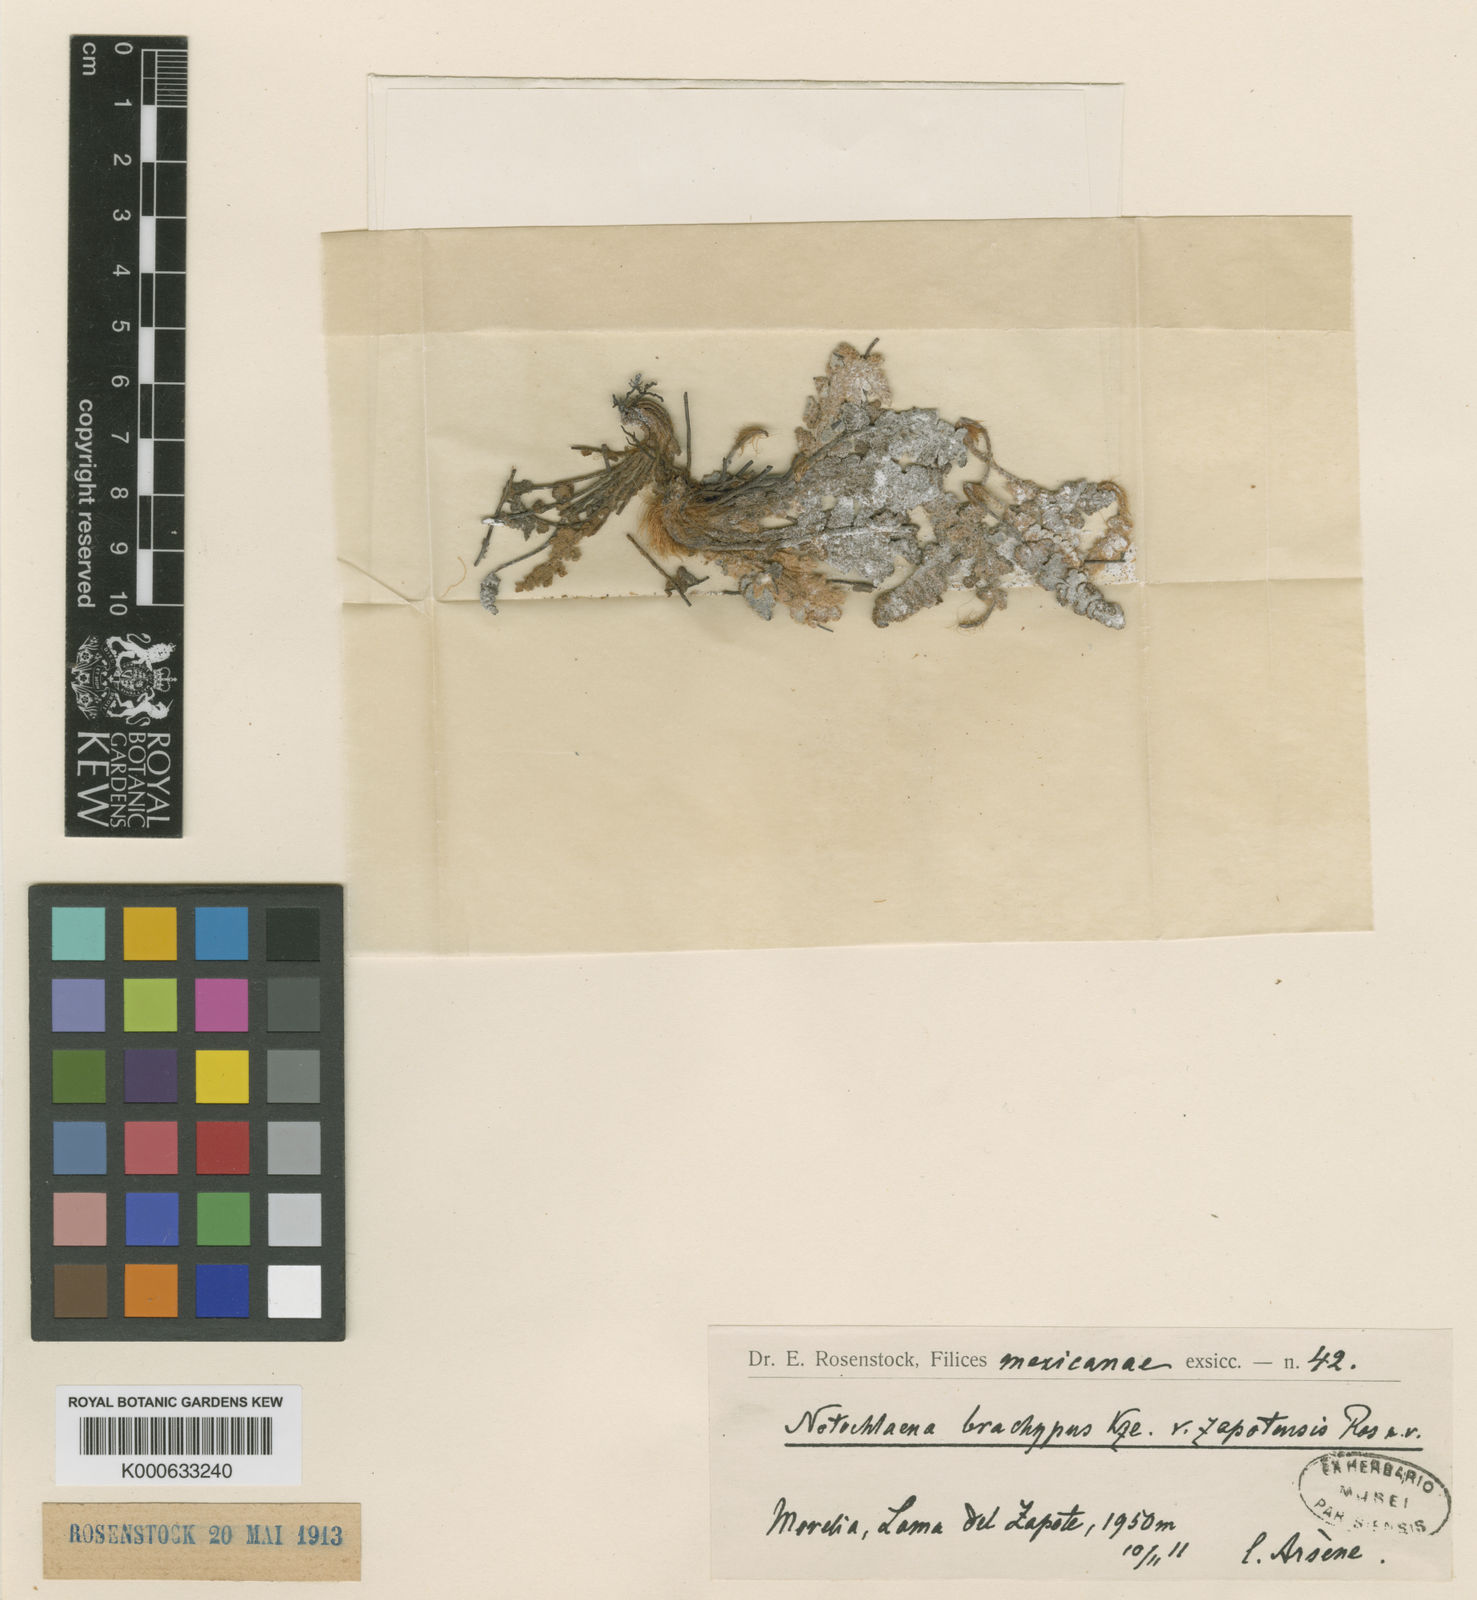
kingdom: Plantae
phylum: Tracheophyta
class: Polypodiopsida
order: Polypodiales
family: Pteridaceae
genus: Notholaena
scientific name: Notholaena brachypus
